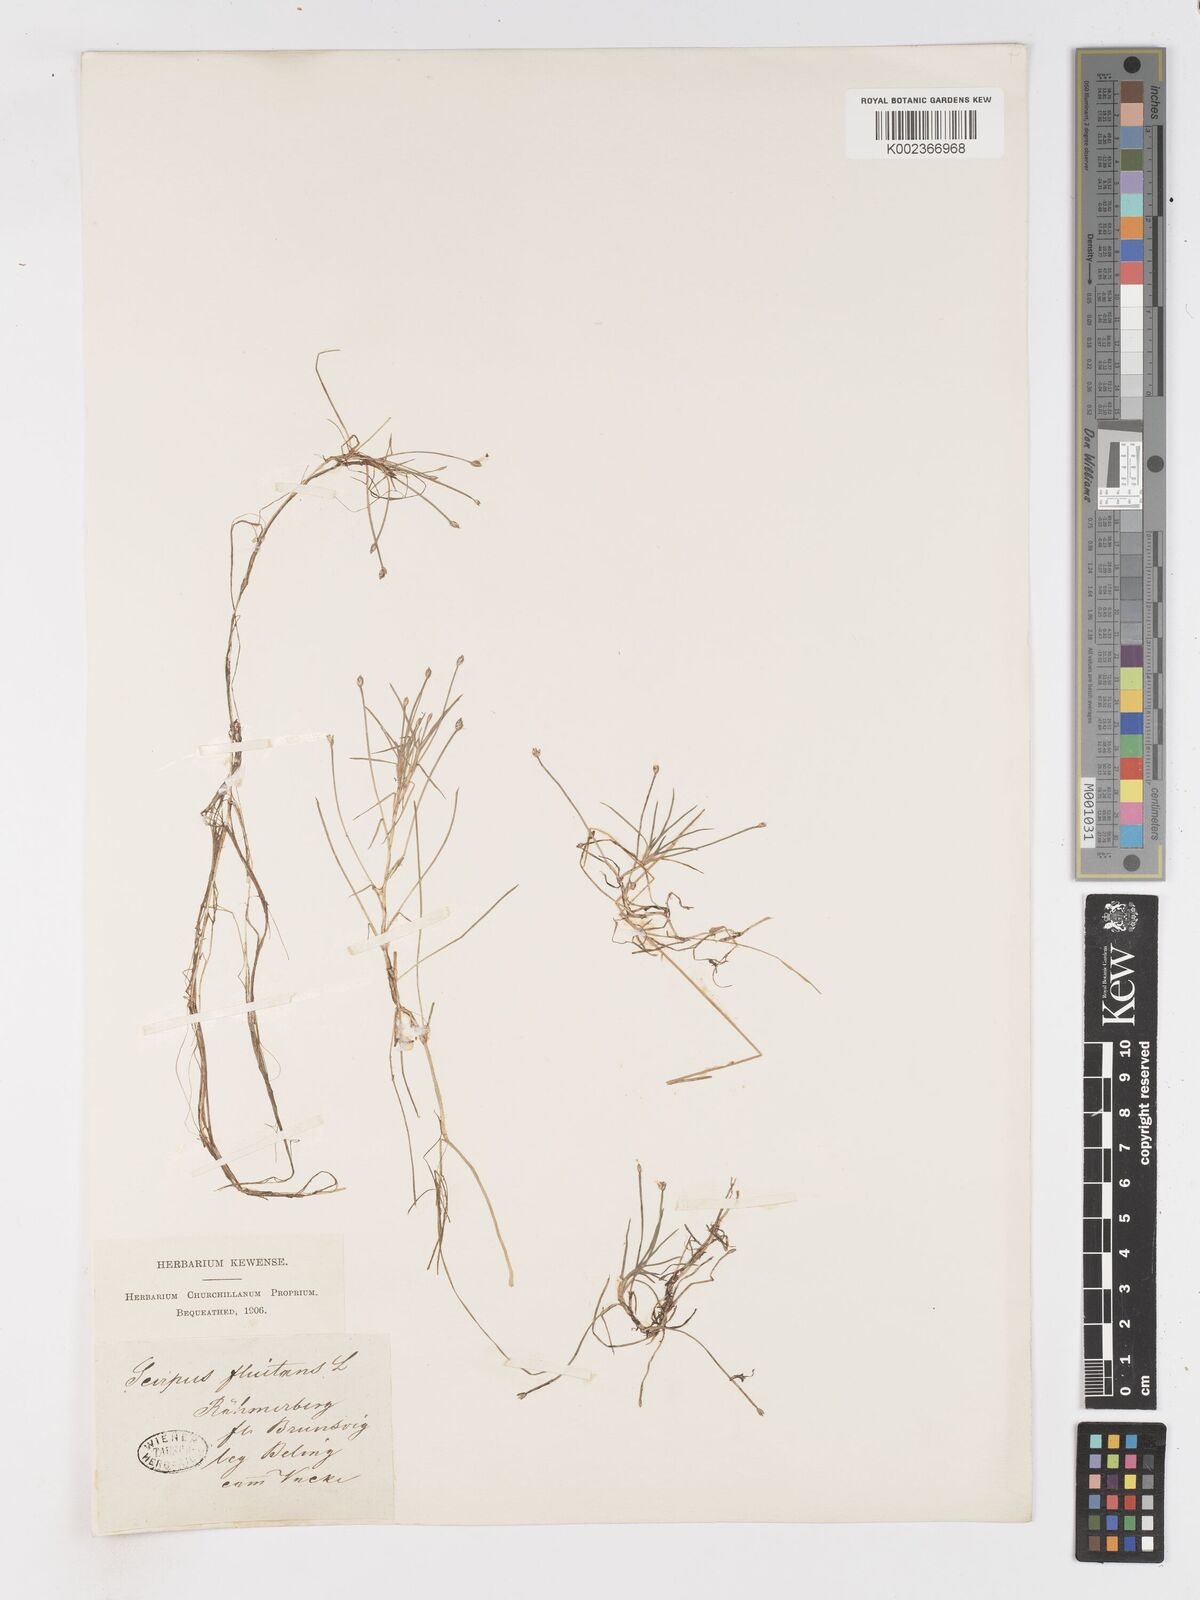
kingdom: Plantae
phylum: Tracheophyta
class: Liliopsida
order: Poales
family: Cyperaceae
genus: Isolepis
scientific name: Isolepis fluitans
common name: Floating club-rush
